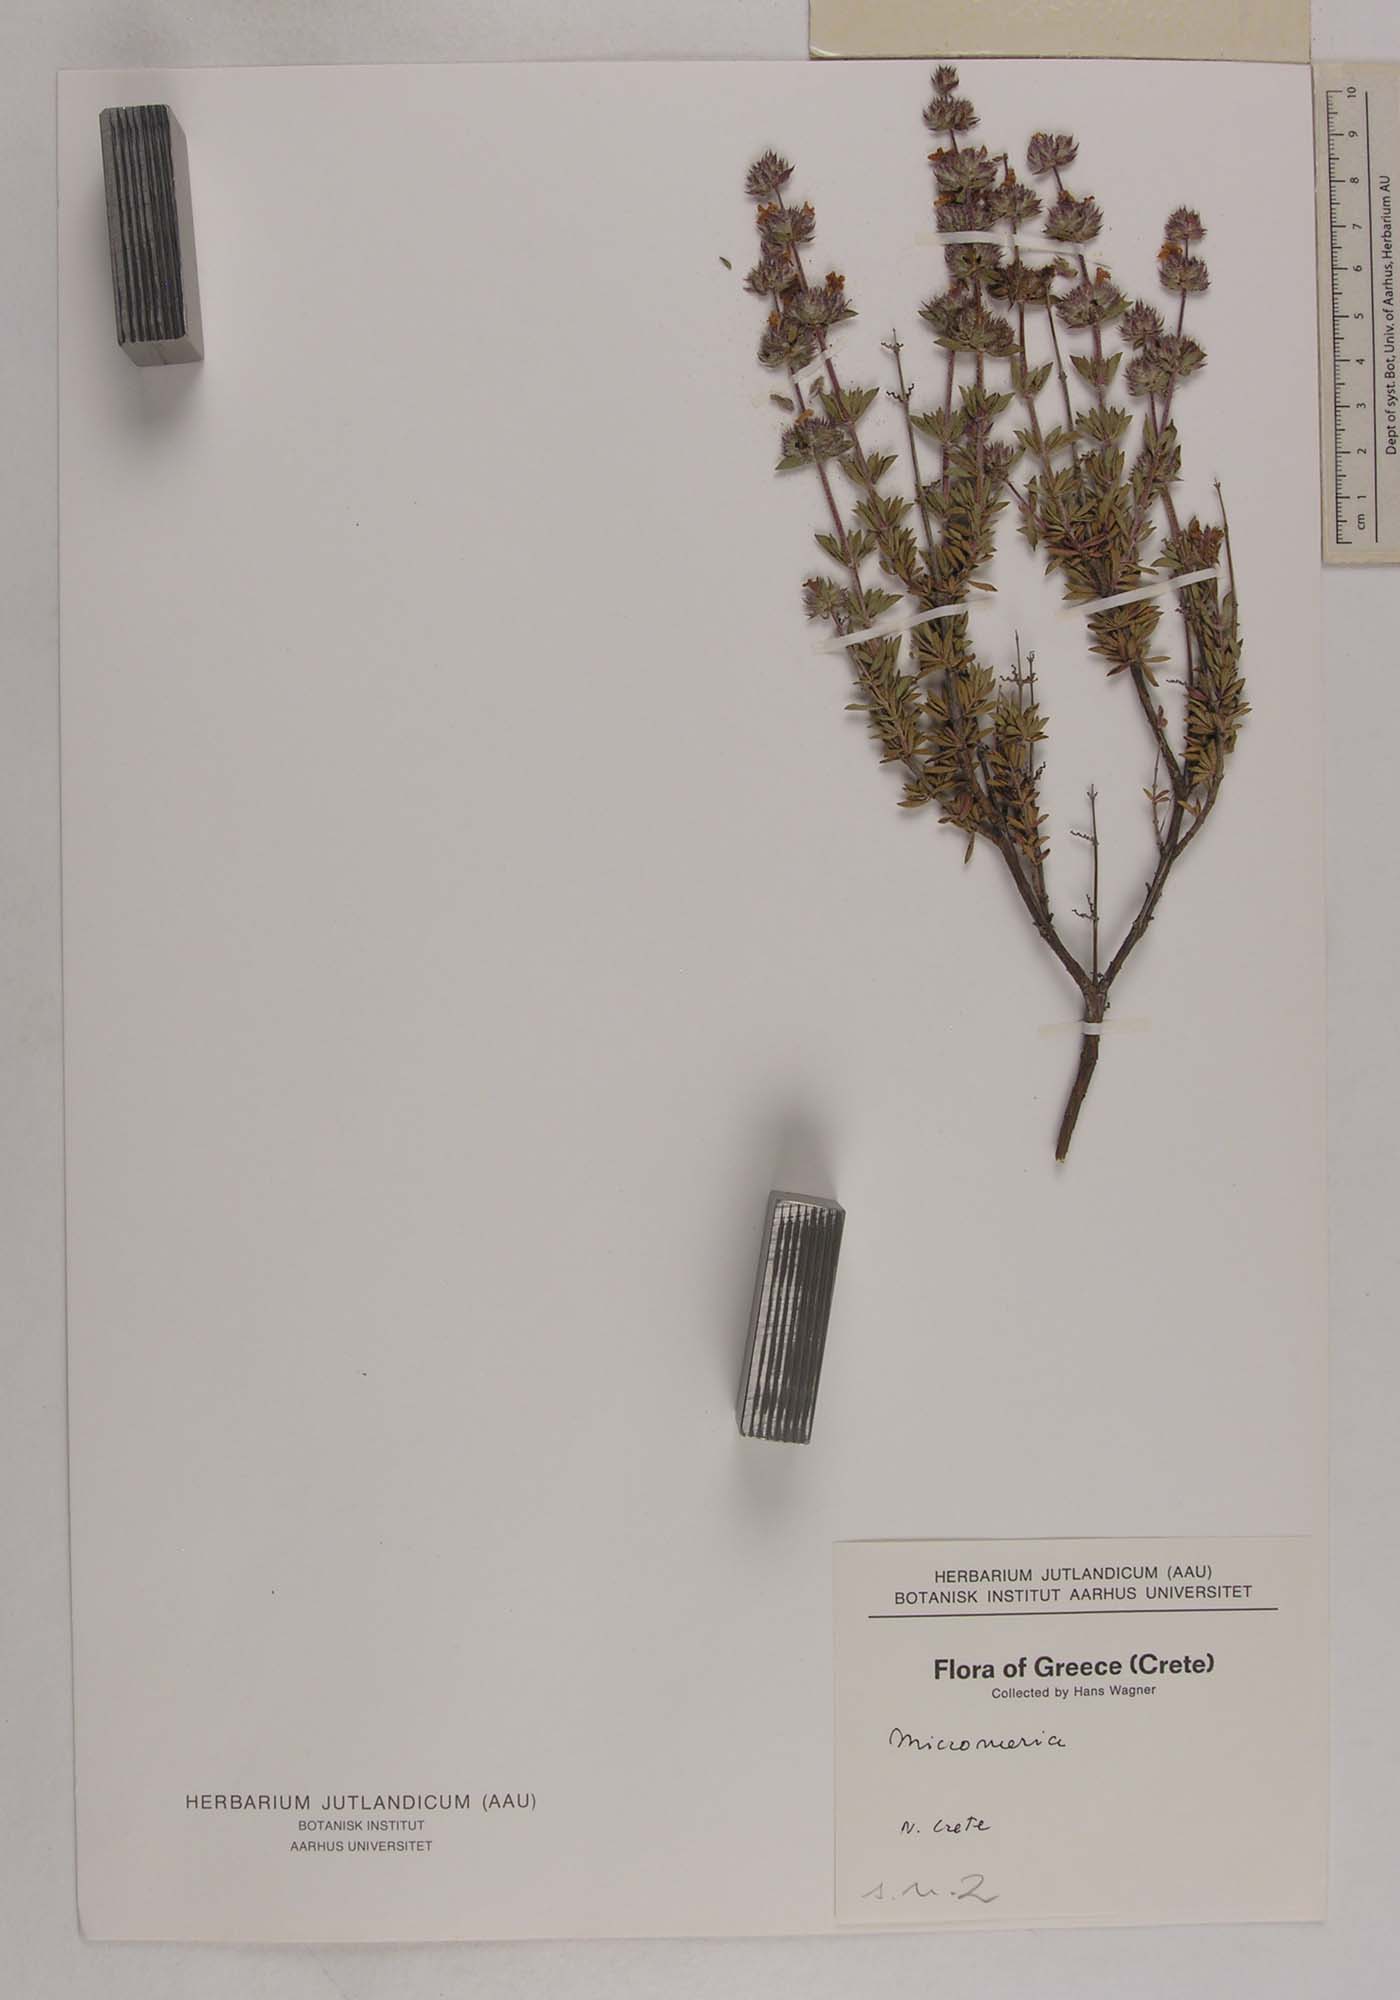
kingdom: Plantae
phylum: Tracheophyta
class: Magnoliopsida
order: Lamiales
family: Lamiaceae
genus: Micromeria
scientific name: Micromeria
